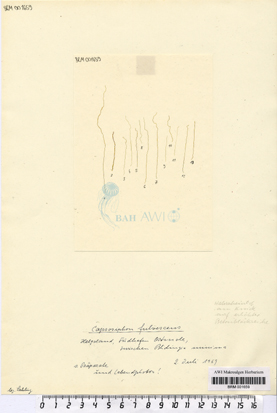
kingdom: Plantae
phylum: Chlorophyta
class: Ulvophyceae
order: Ulvales
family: Capsosiphonaceae
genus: Capsosiphon
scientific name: Capsosiphon fulvescens
